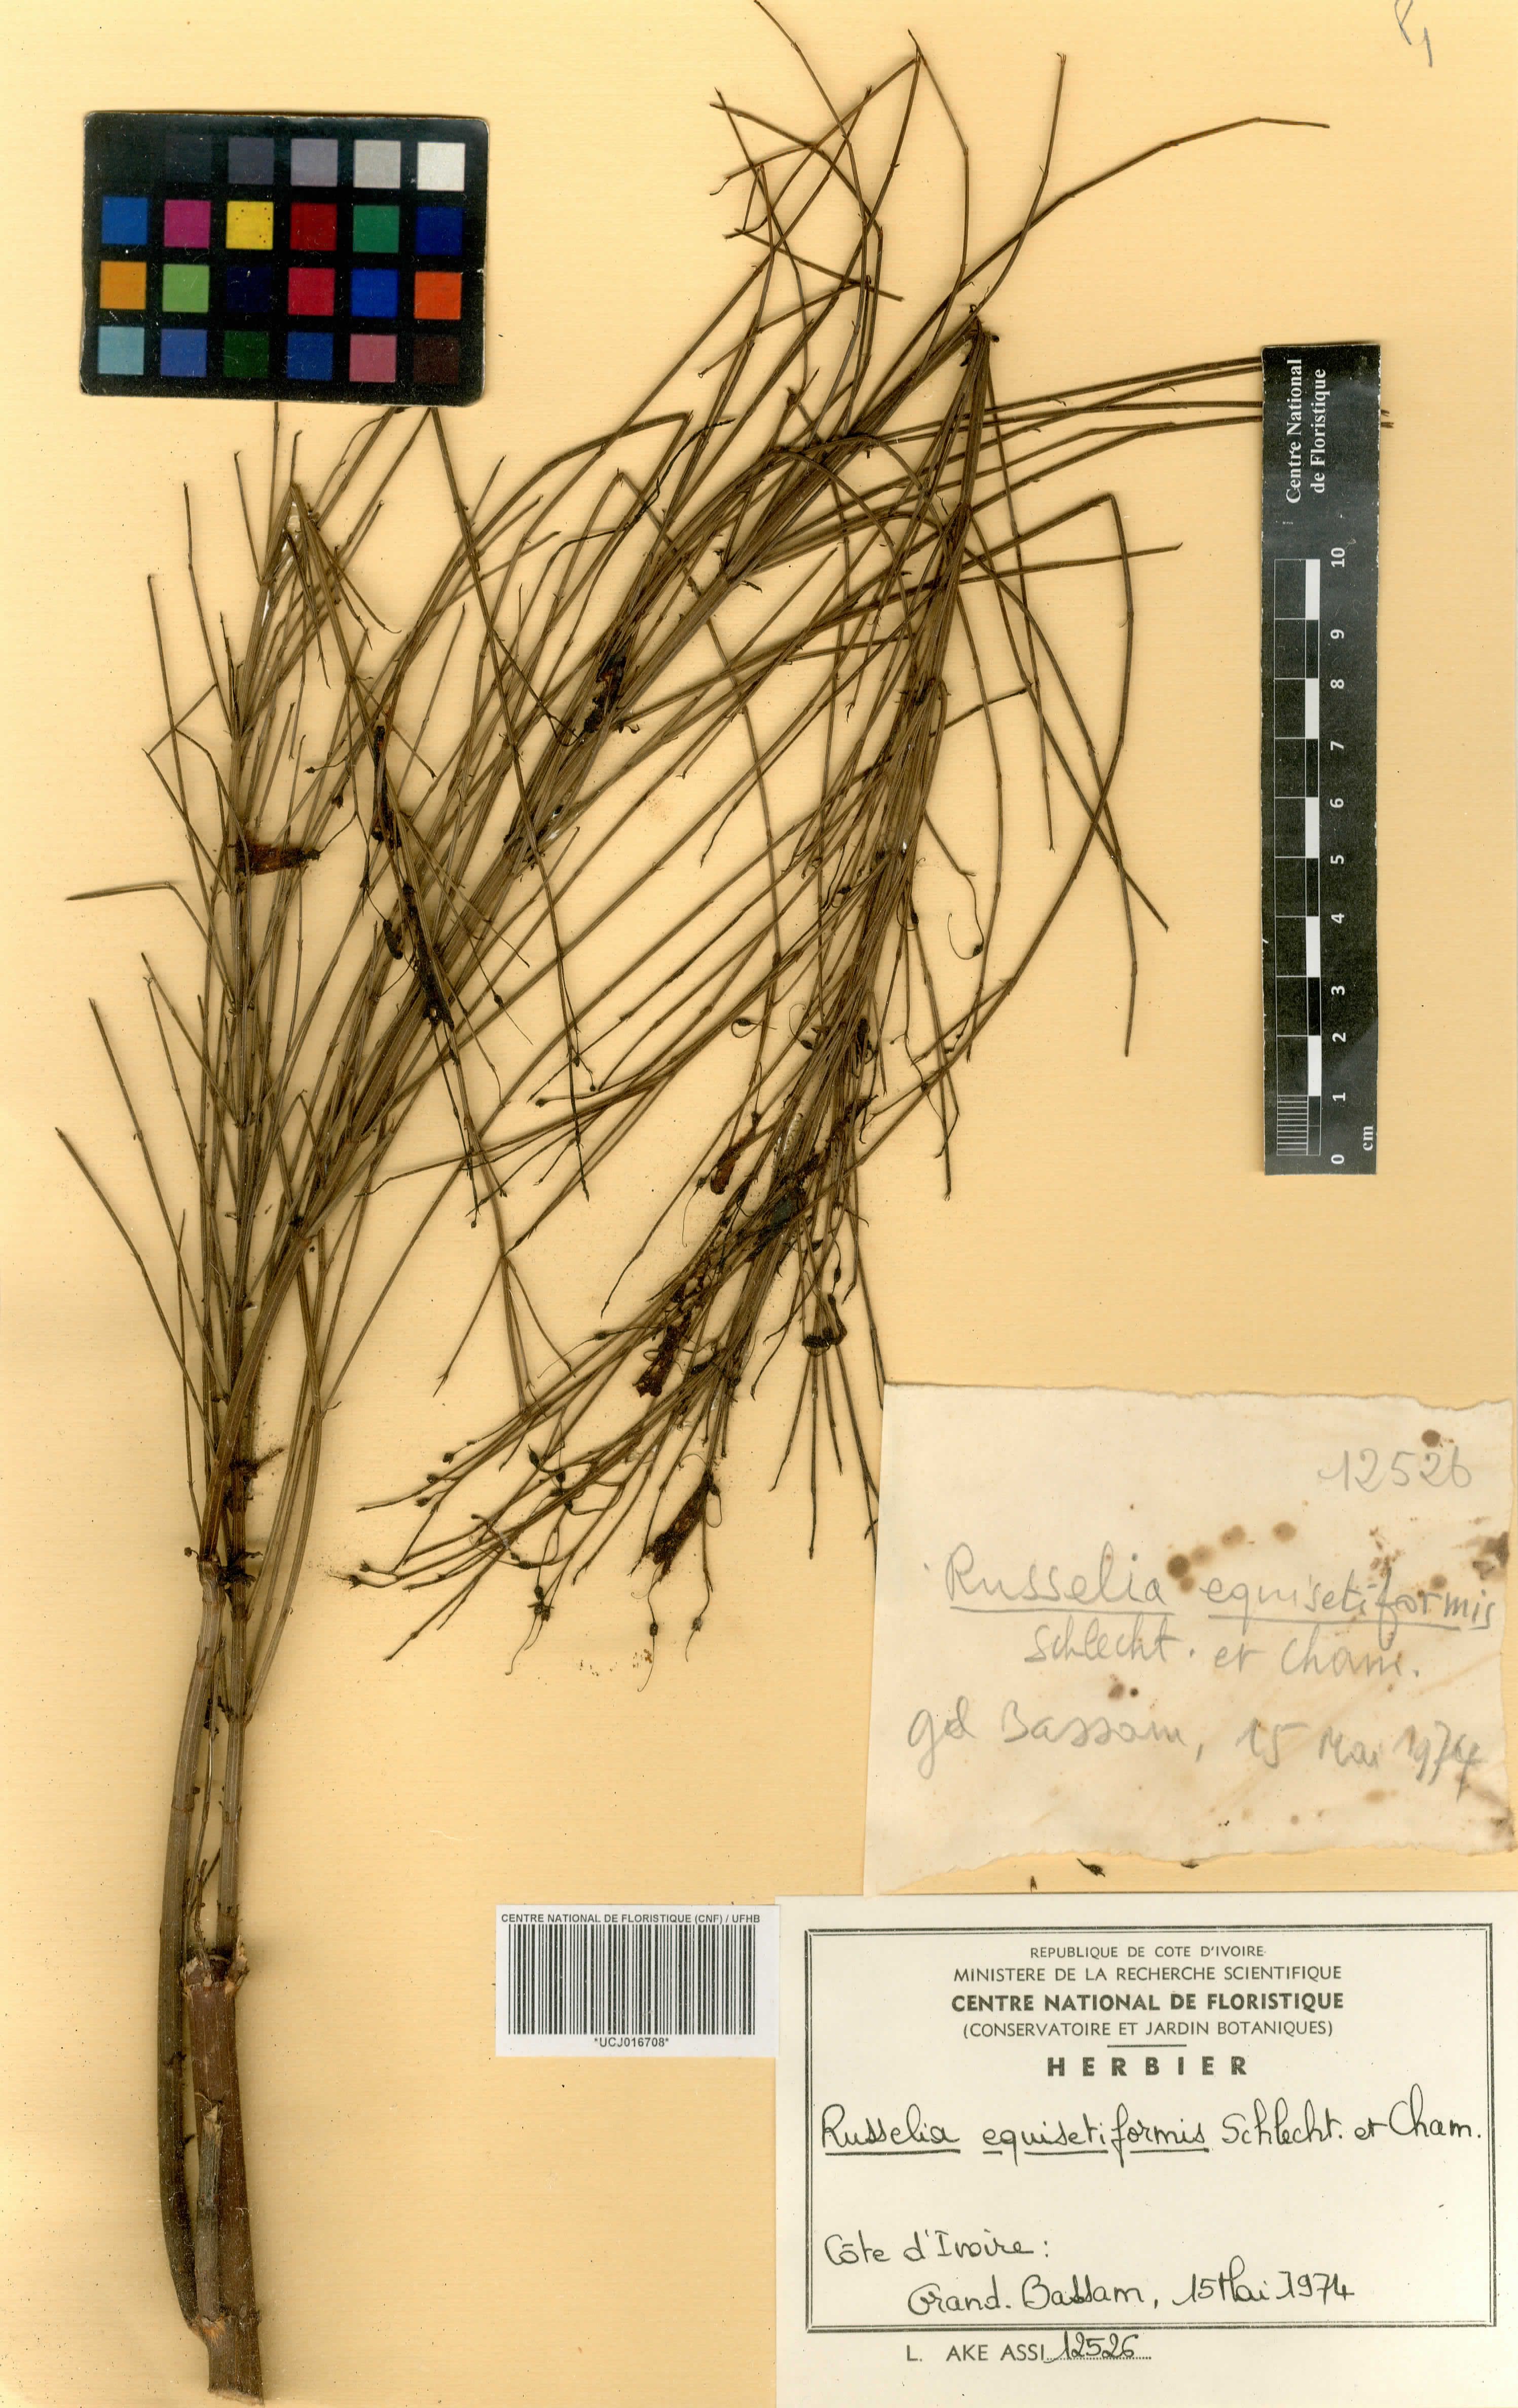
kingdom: Plantae
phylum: Tracheophyta
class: Magnoliopsida
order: Lamiales
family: Plantaginaceae
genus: Russelia
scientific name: Russelia equisetiformis
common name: Fountainbush
